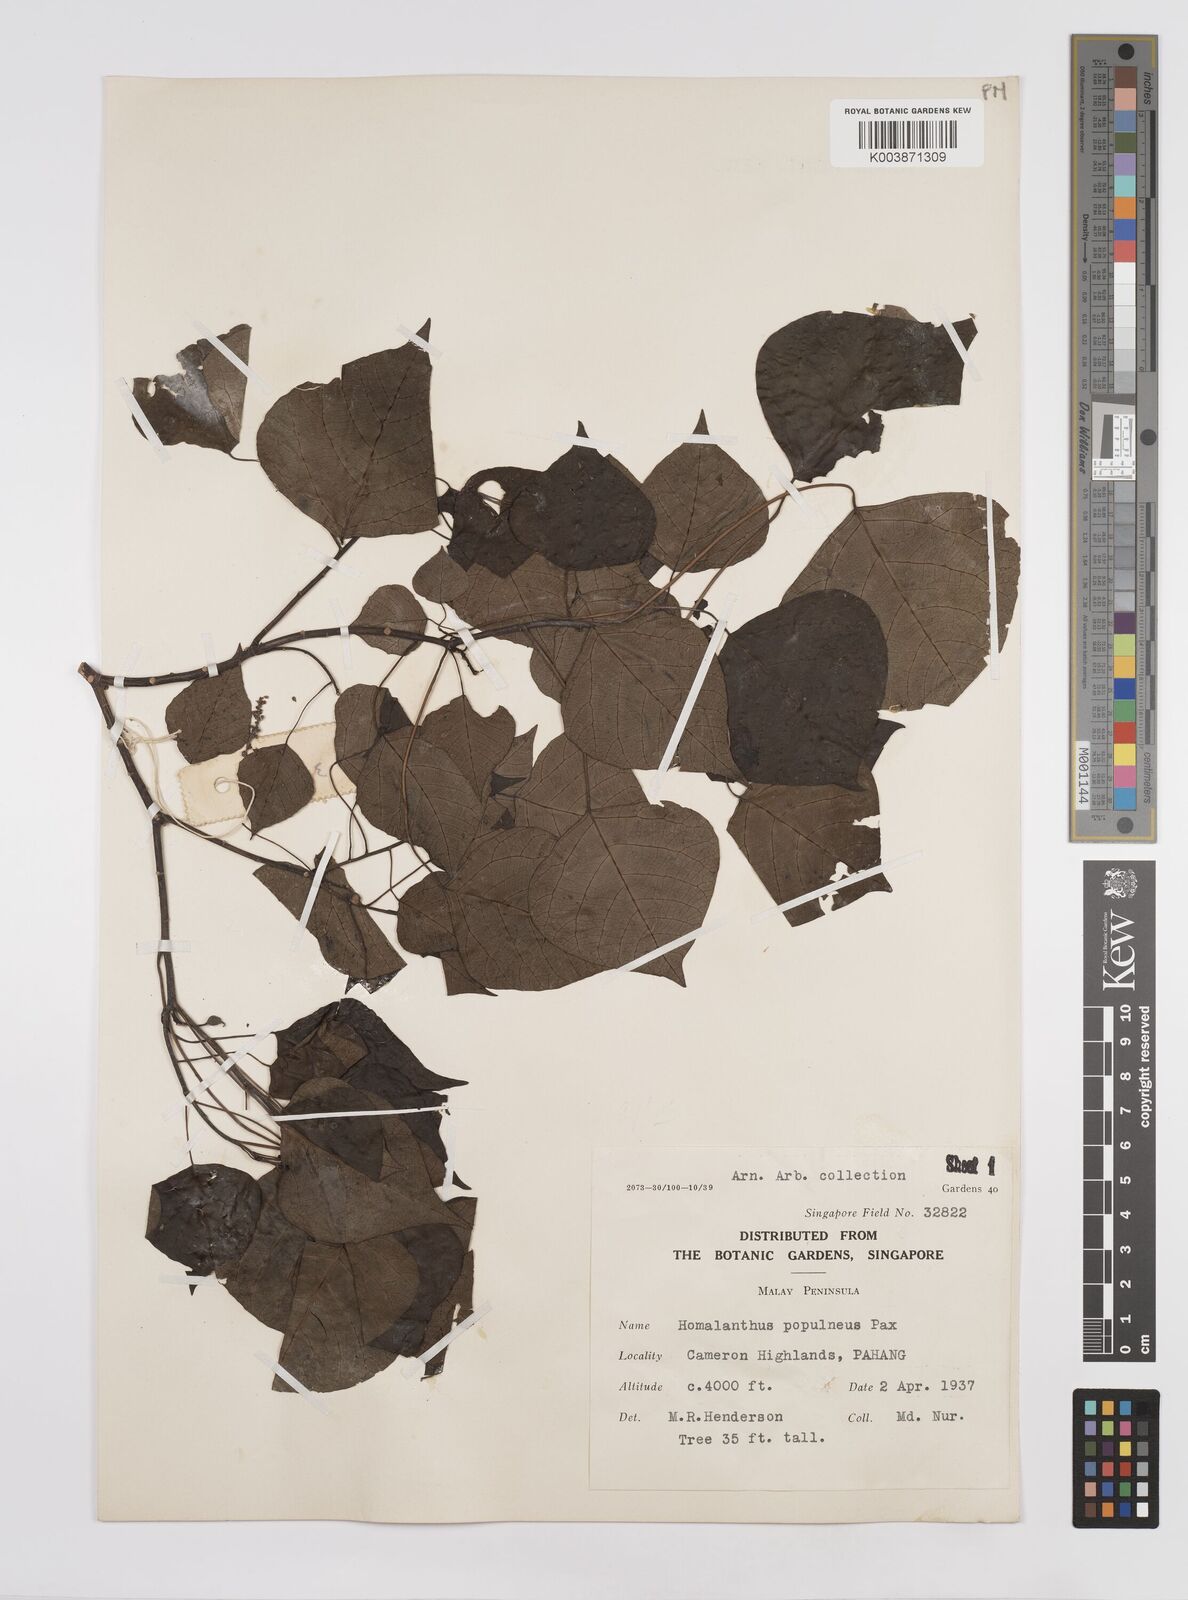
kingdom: Plantae
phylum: Tracheophyta
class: Magnoliopsida
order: Malpighiales
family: Euphorbiaceae
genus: Homalanthus
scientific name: Homalanthus populneus
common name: Spurge
